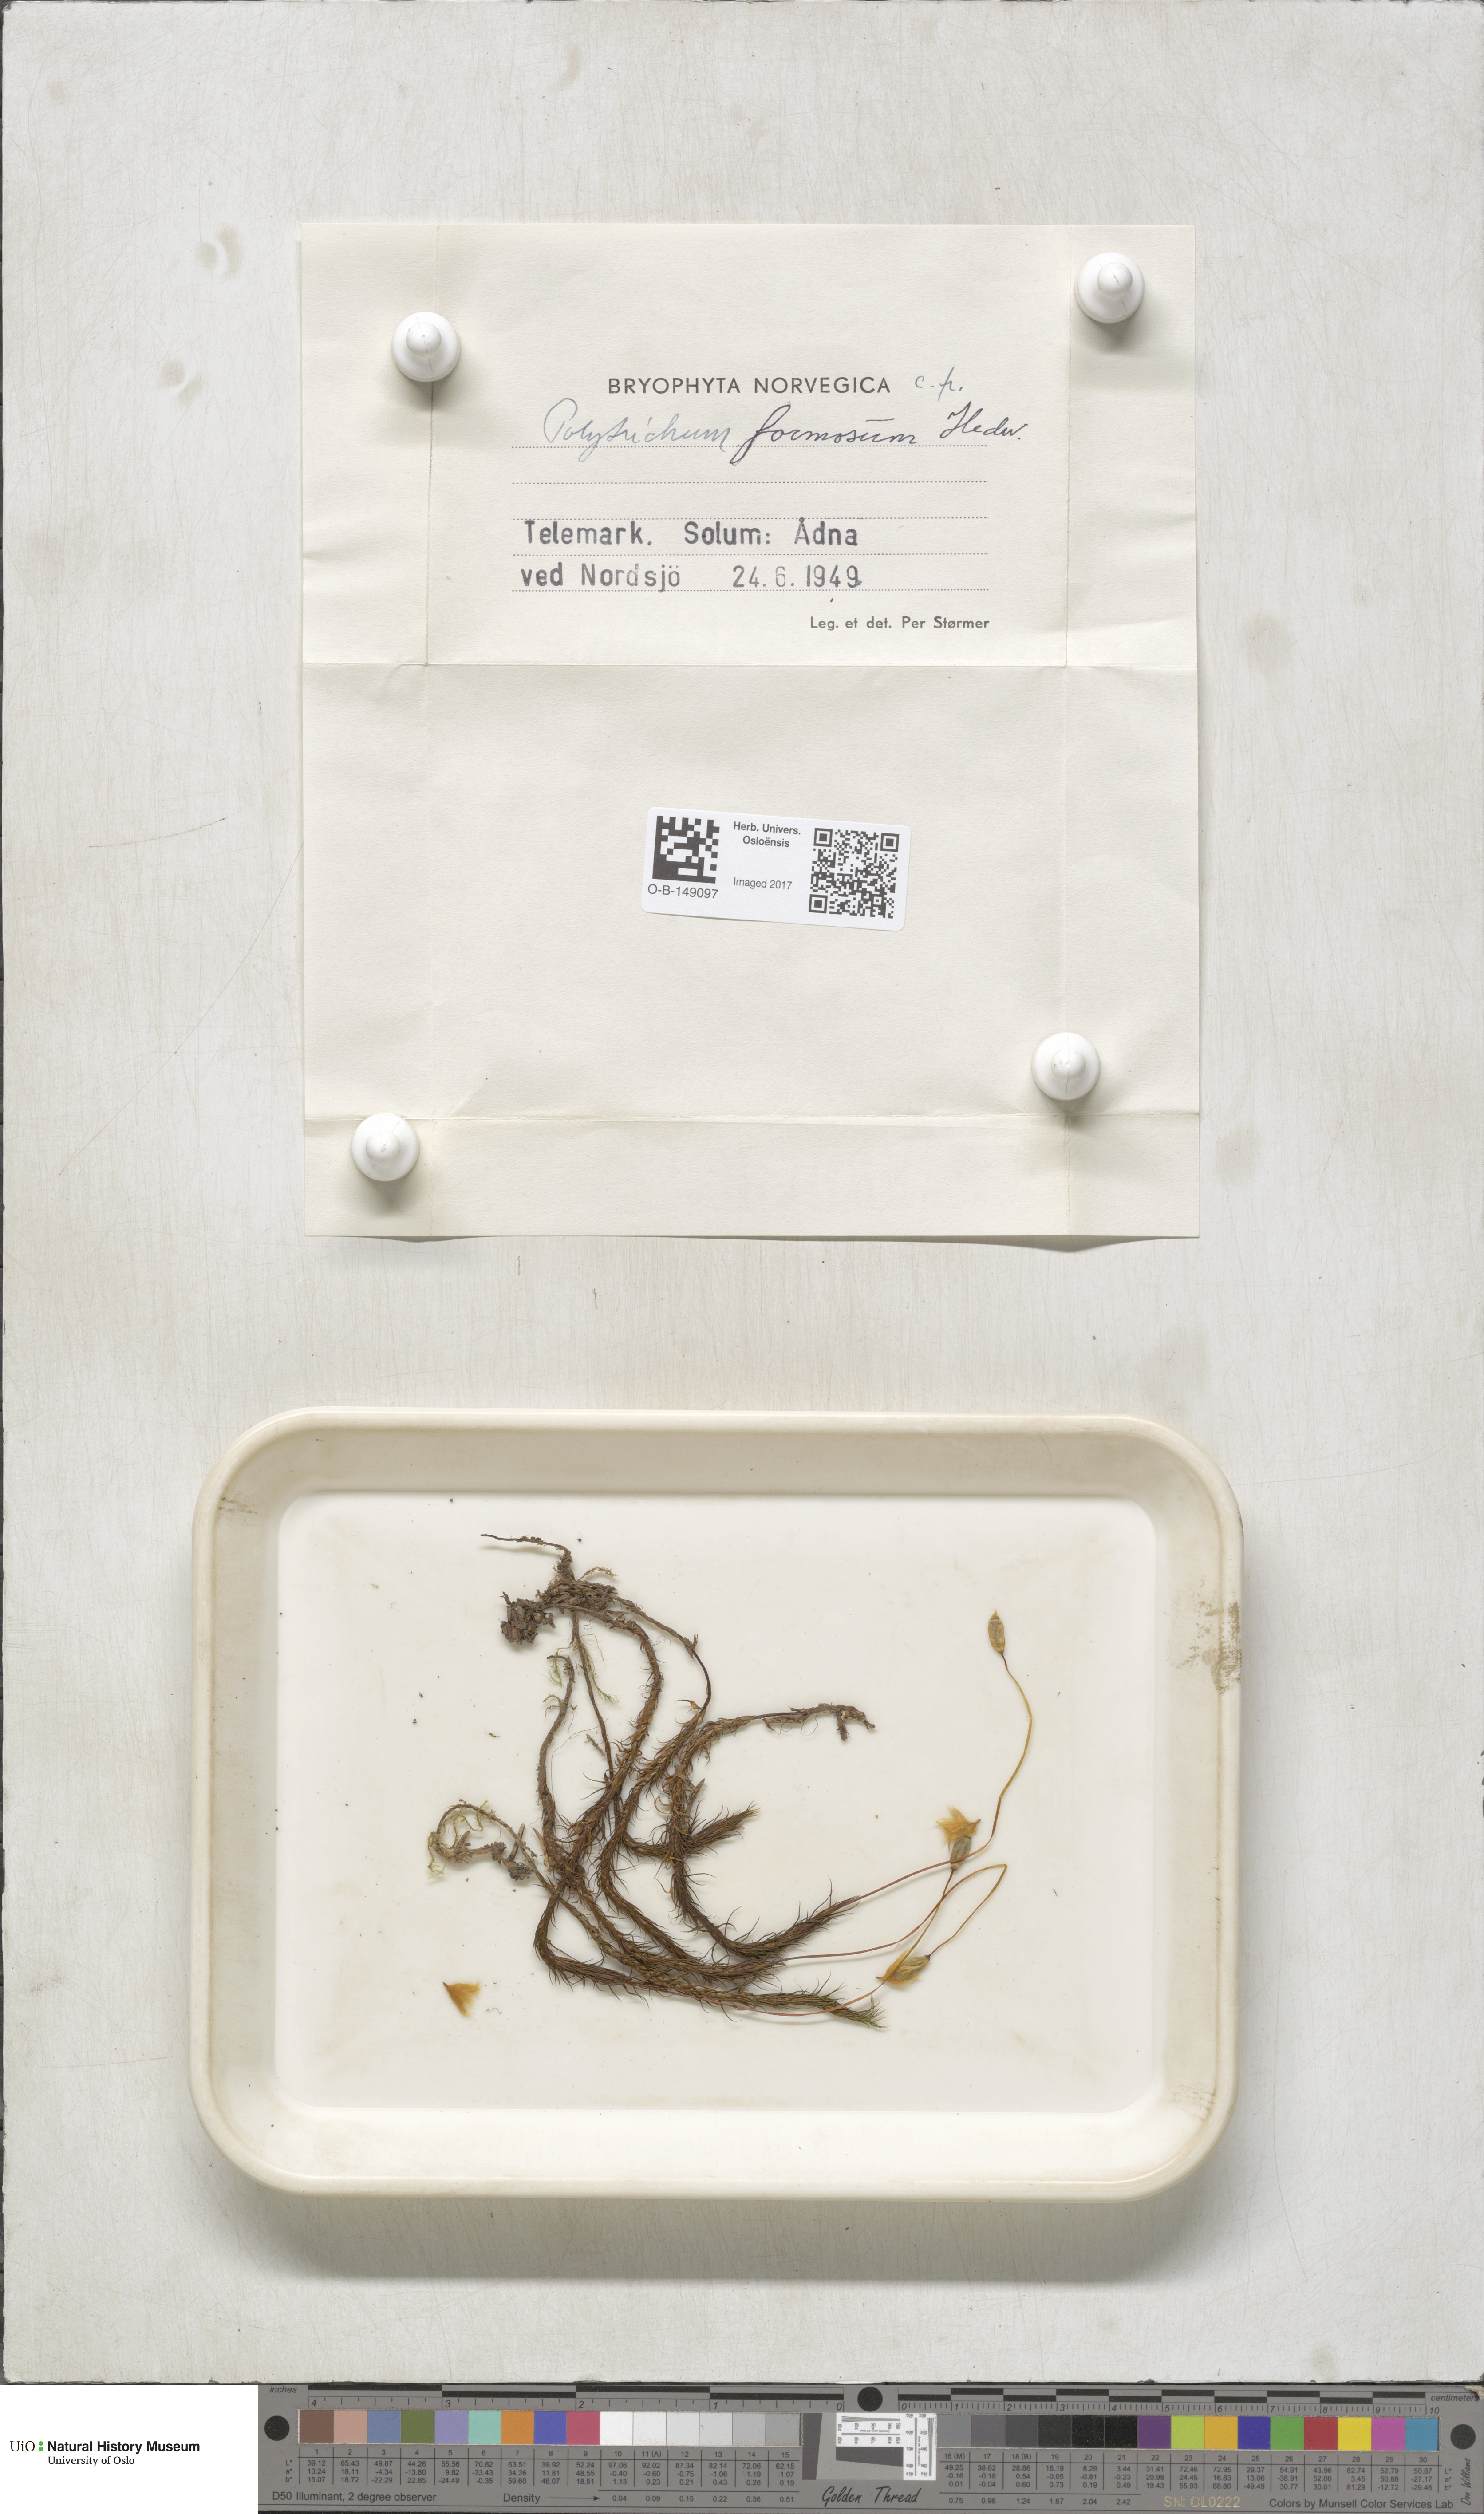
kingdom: Plantae
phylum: Bryophyta
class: Polytrichopsida
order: Polytrichales
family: Polytrichaceae
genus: Polytrichum
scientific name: Polytrichum formosum
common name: Bank haircap moss
